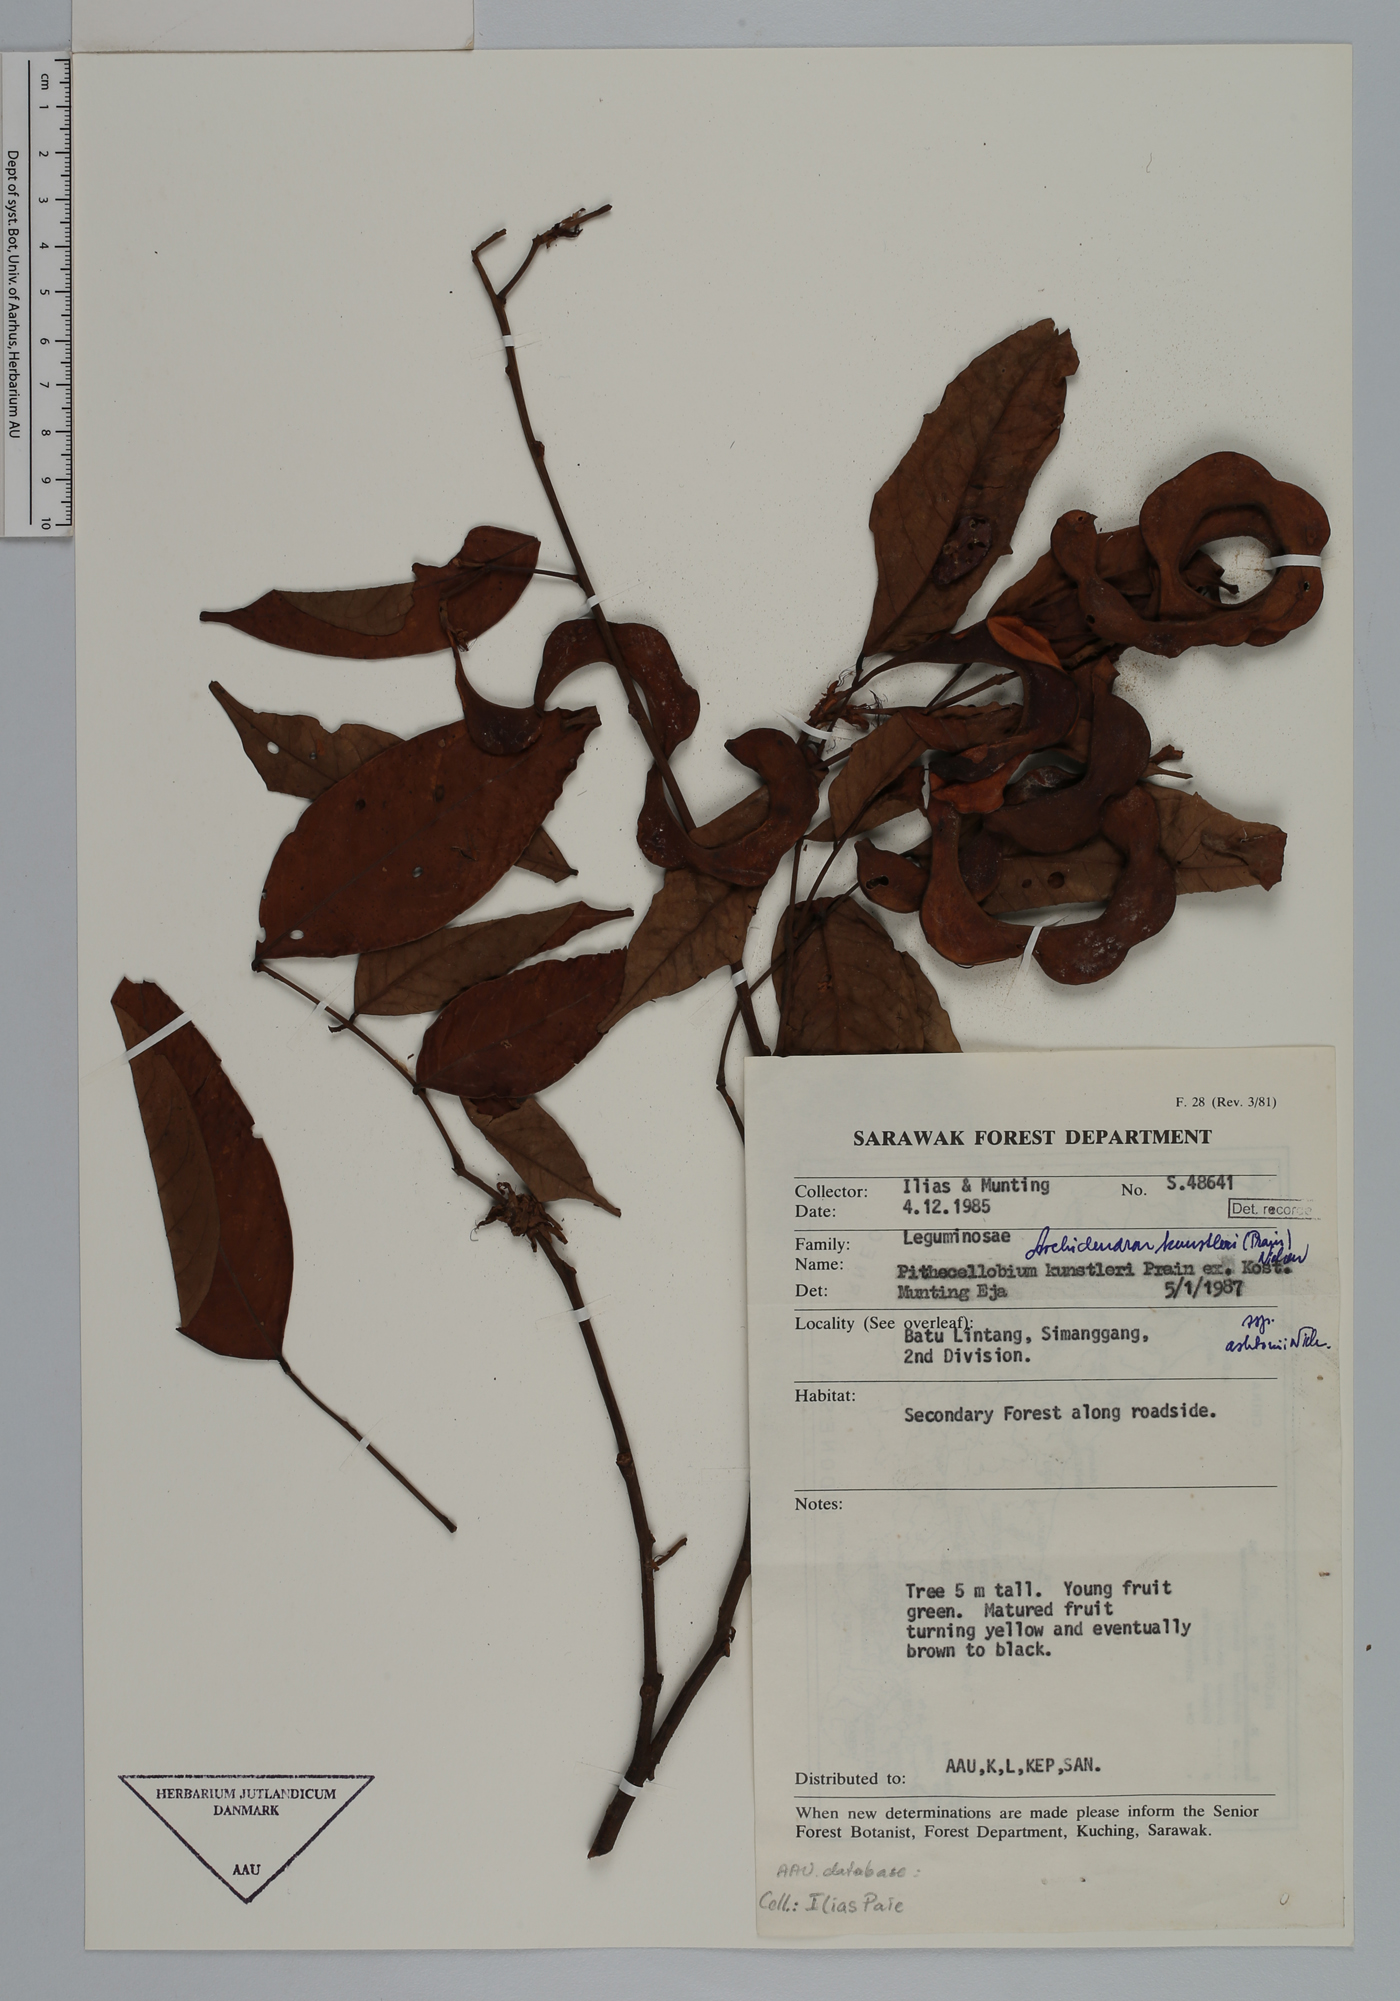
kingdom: Plantae
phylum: Tracheophyta
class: Magnoliopsida
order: Fabales
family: Fabaceae
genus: Archidendron
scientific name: Archidendron kunstleri
